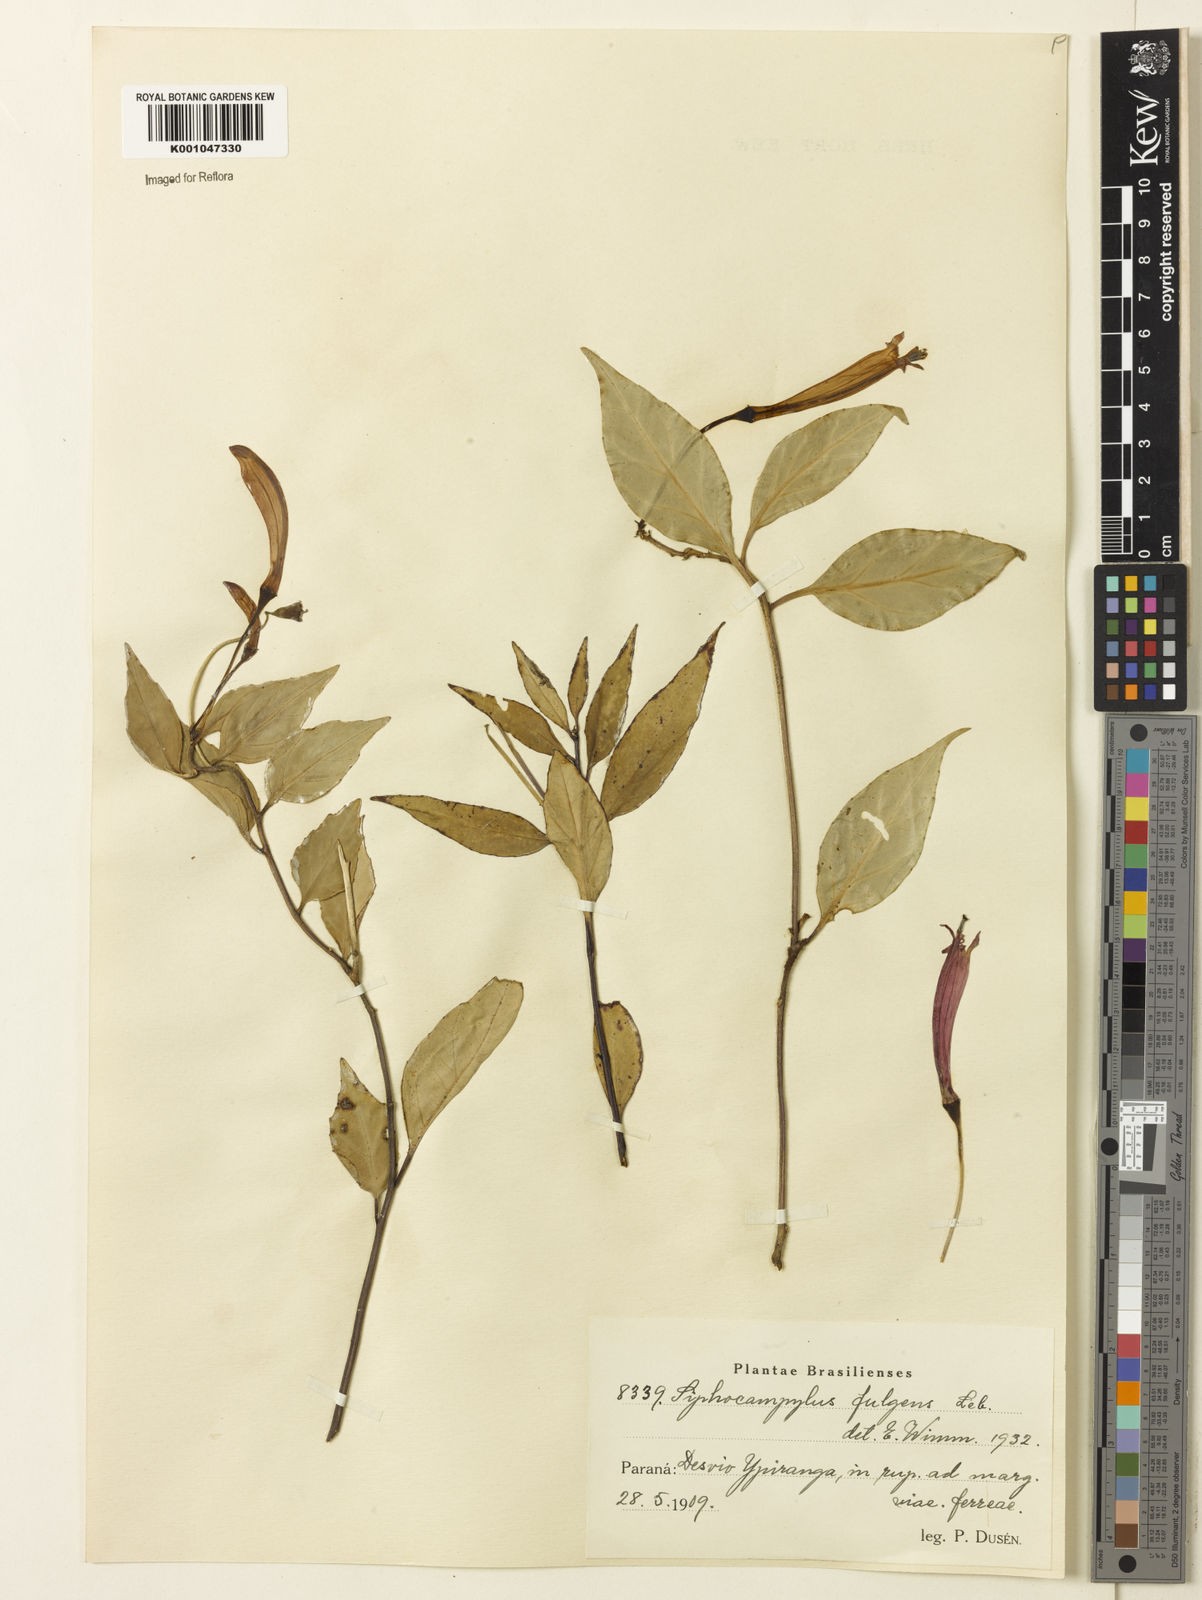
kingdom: Plantae
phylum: Tracheophyta
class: Magnoliopsida
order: Asterales
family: Campanulaceae
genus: Siphocampylus
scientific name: Siphocampylus
